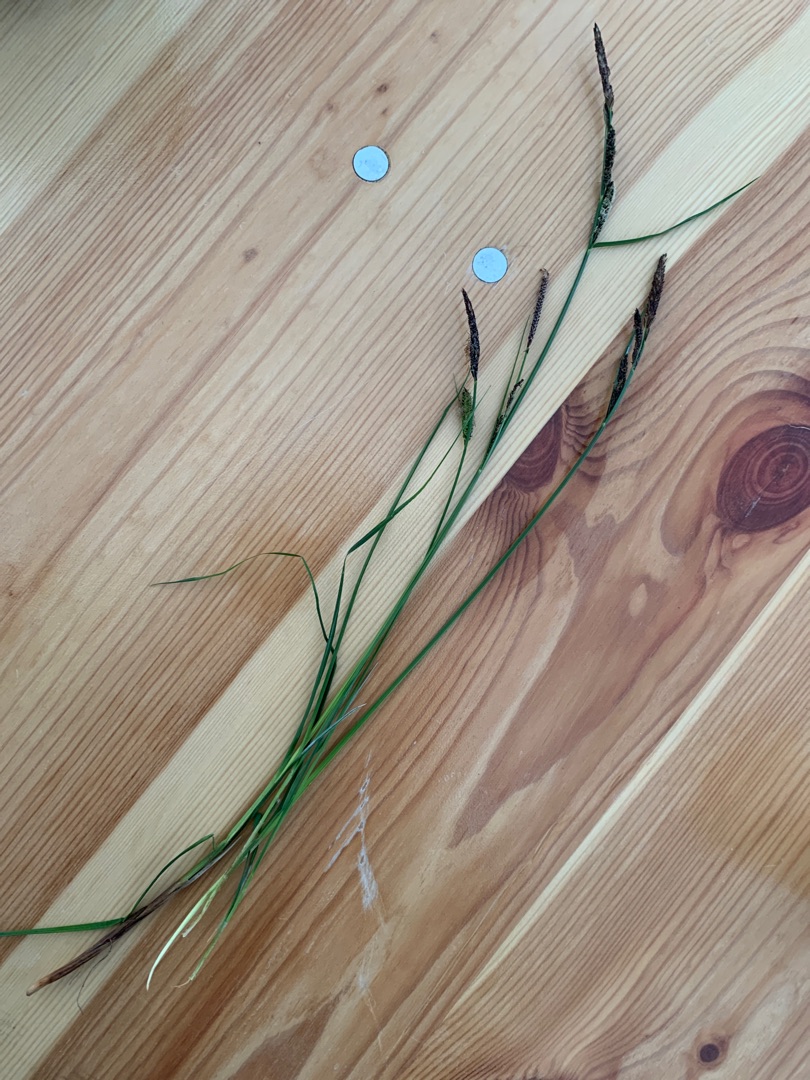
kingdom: Plantae
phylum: Tracheophyta
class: Liliopsida
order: Poales
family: Cyperaceae
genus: Carex
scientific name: Carex nigra
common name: Almindelig star
